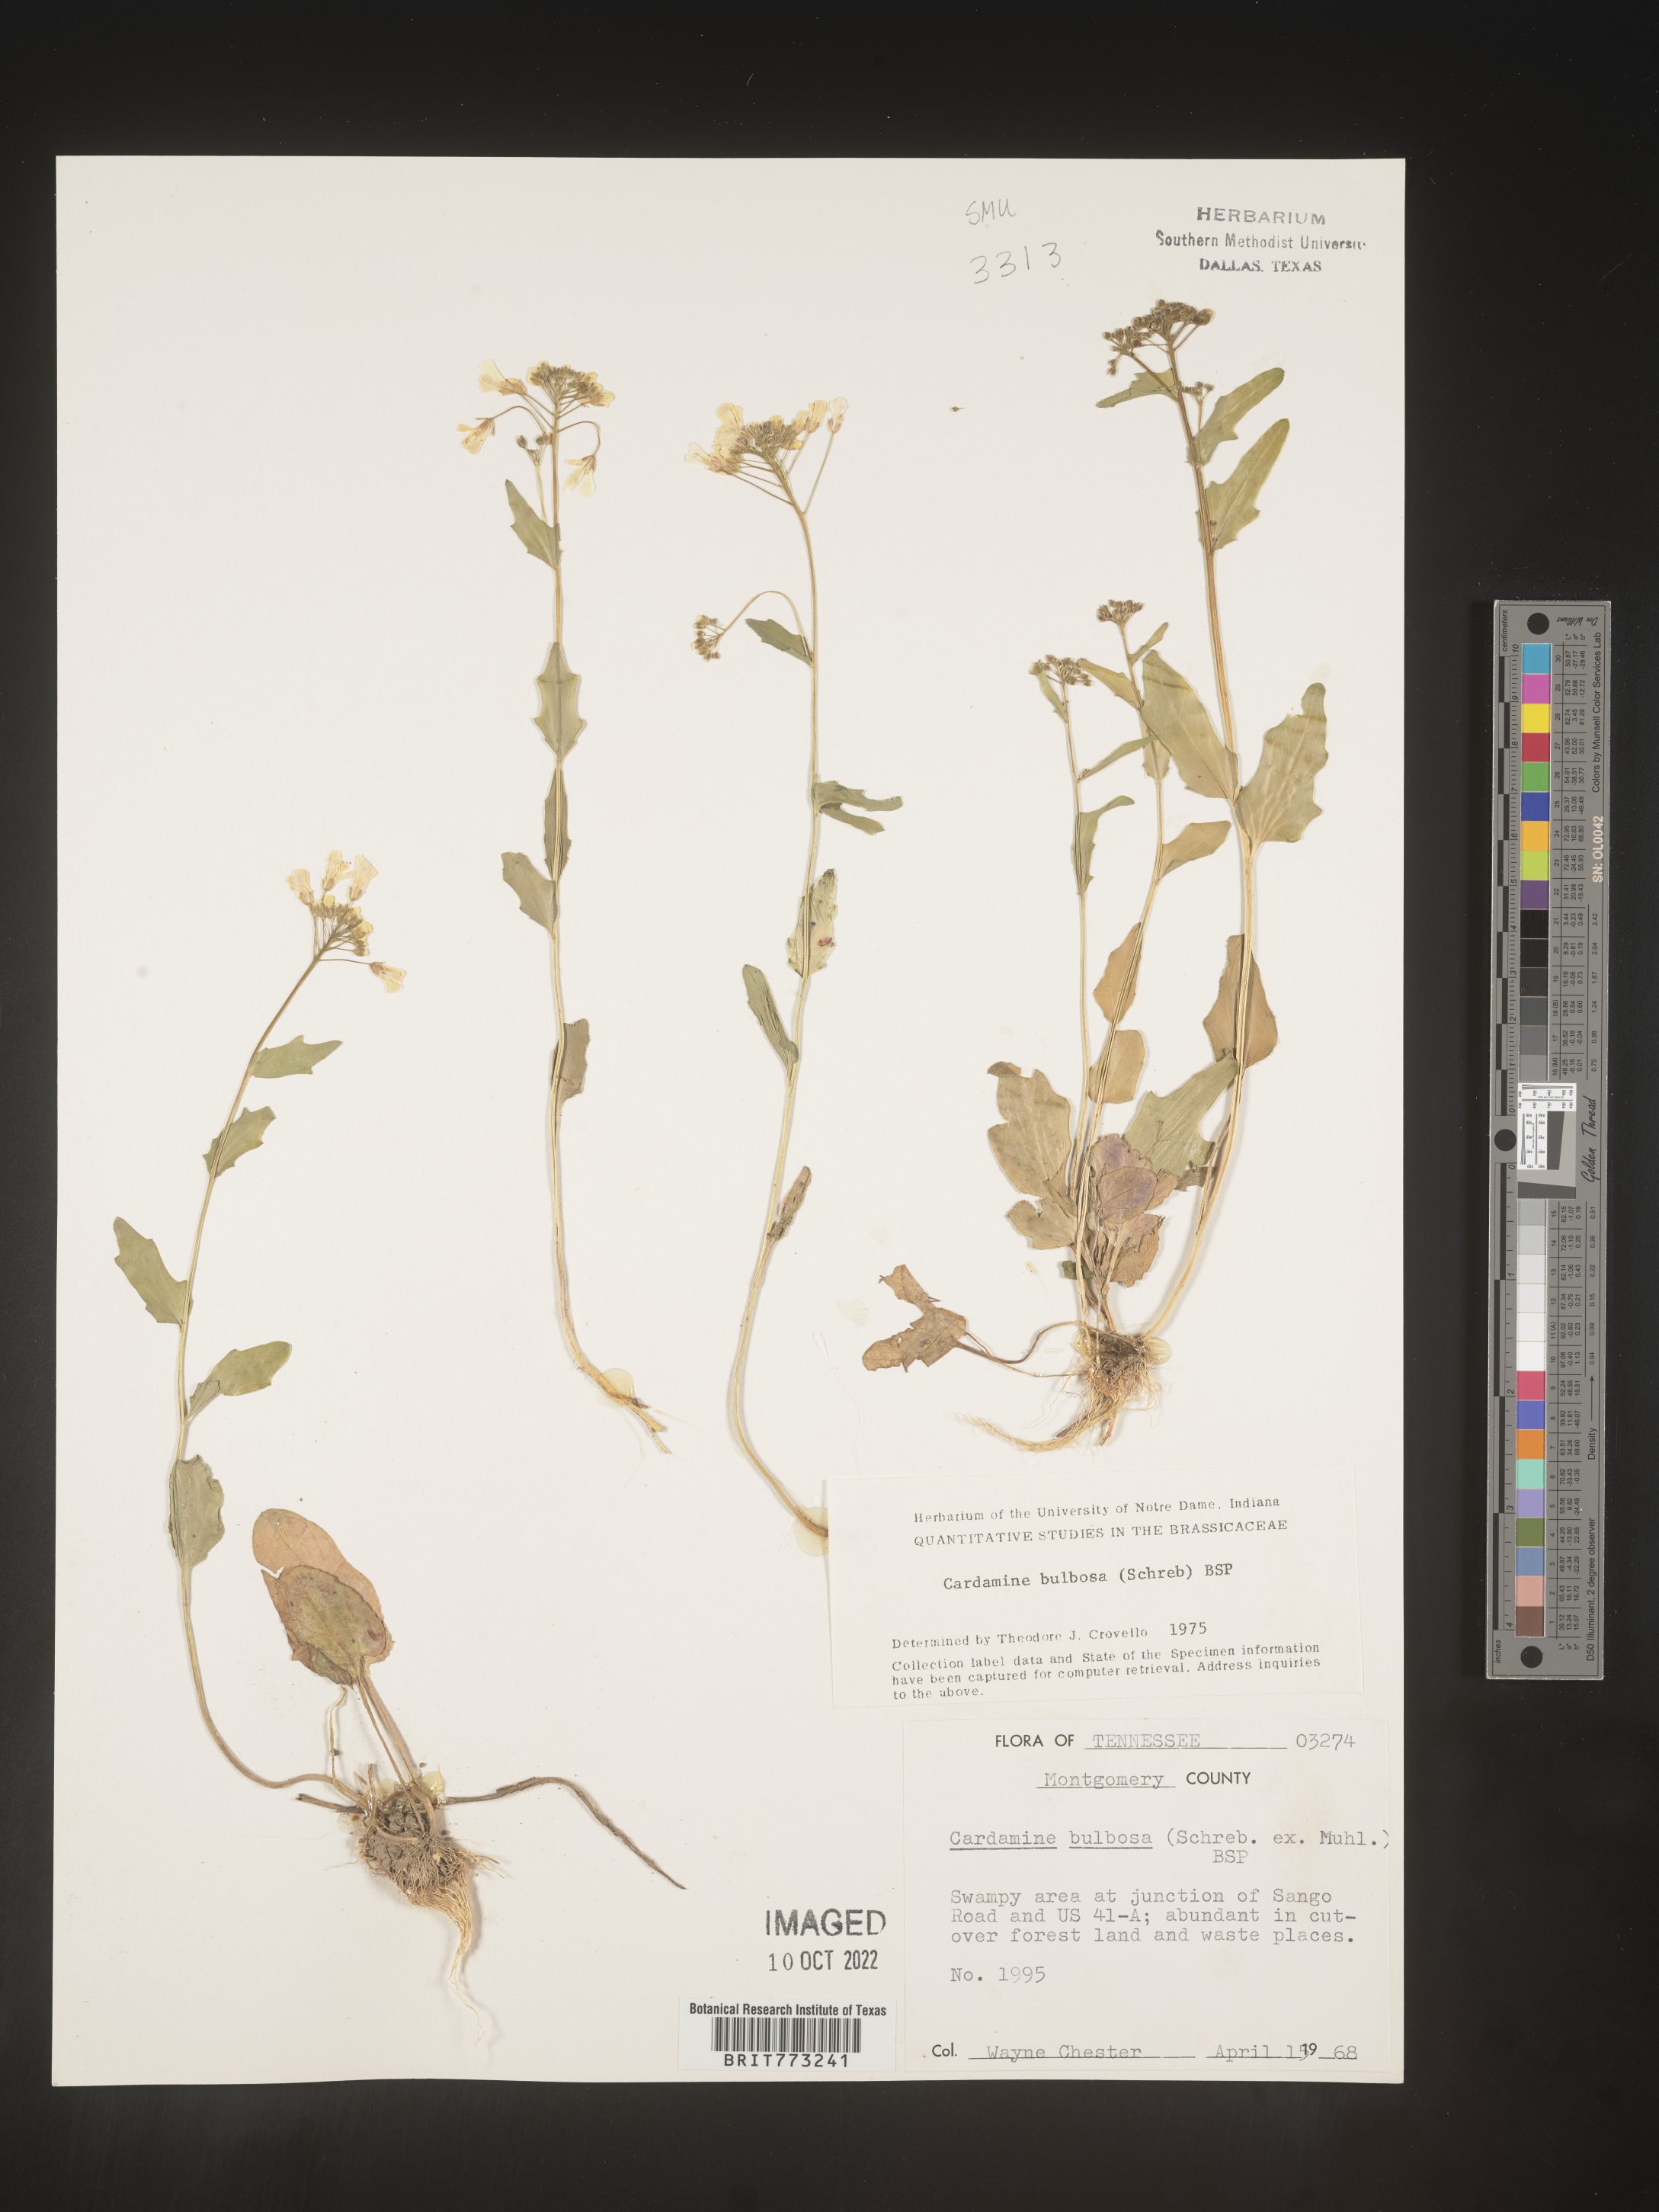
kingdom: Plantae
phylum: Tracheophyta
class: Magnoliopsida
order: Brassicales
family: Brassicaceae
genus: Cardamine
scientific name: Cardamine bulbosa
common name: Spring cress
